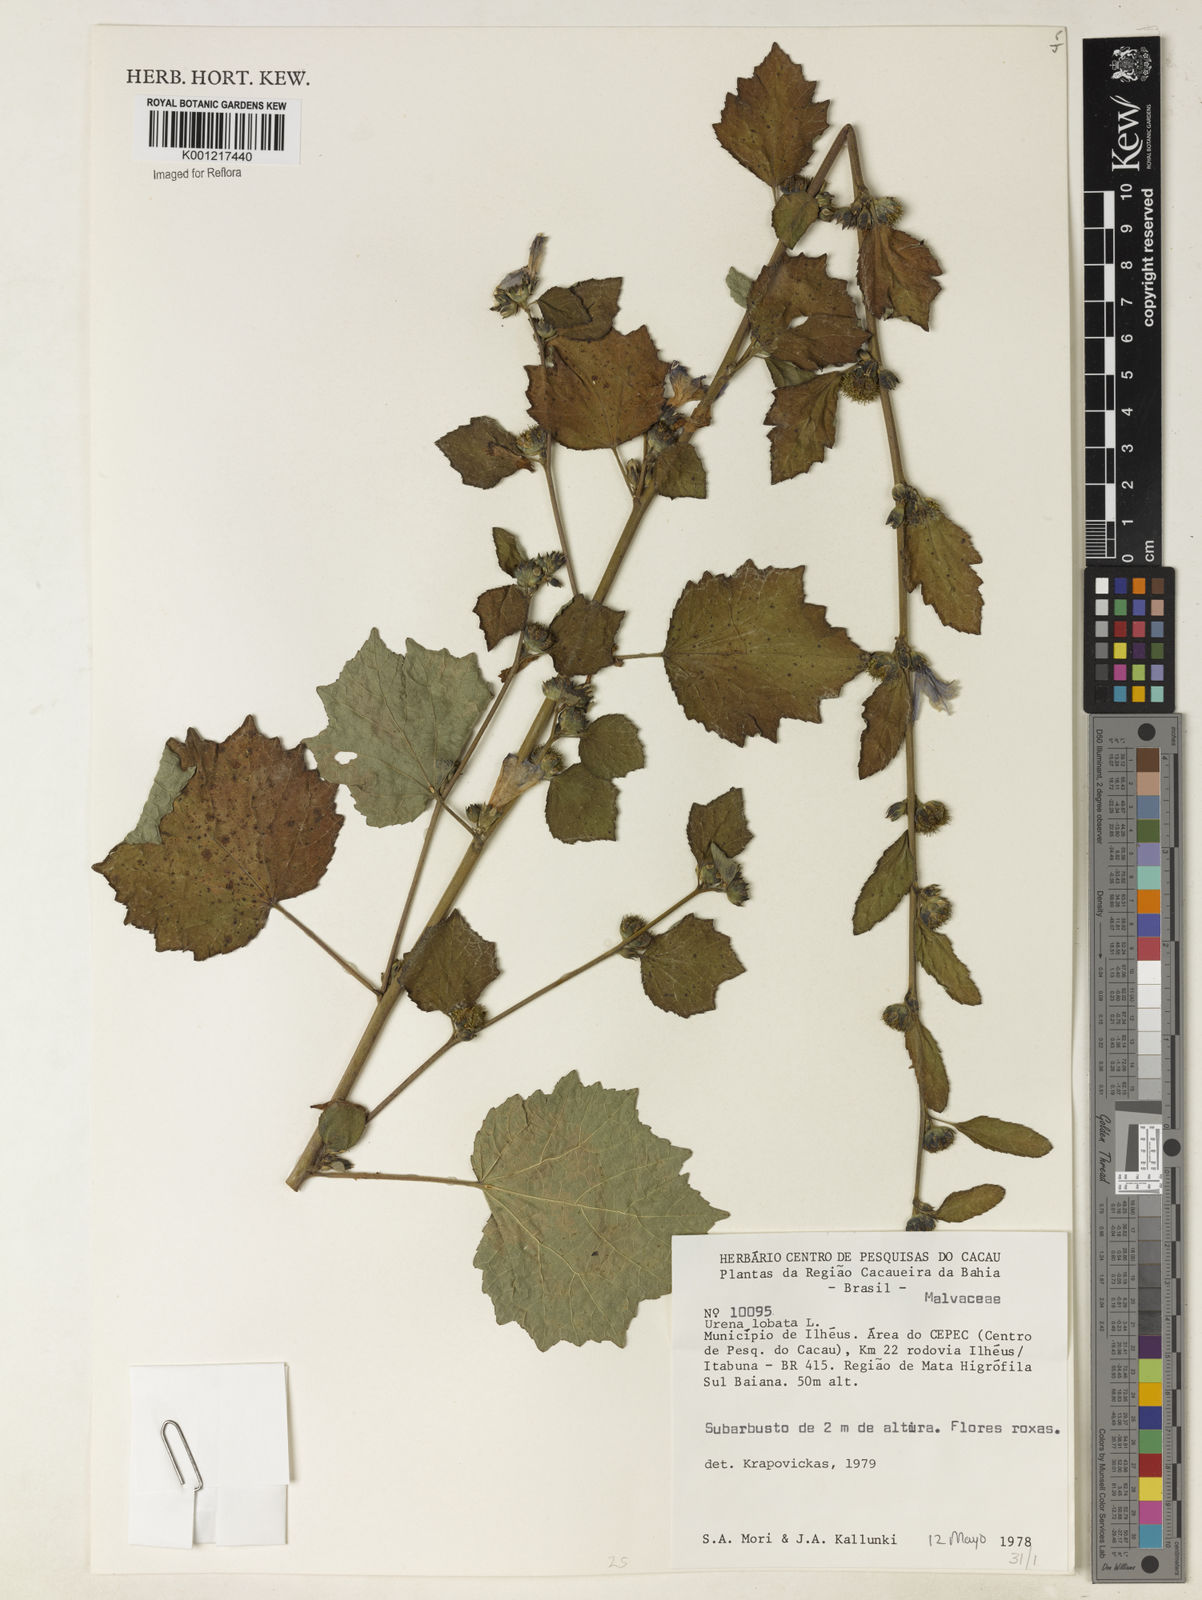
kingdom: Plantae
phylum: Tracheophyta
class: Magnoliopsida
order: Malvales
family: Malvaceae
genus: Urena
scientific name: Urena lobata
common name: Caesarweed
